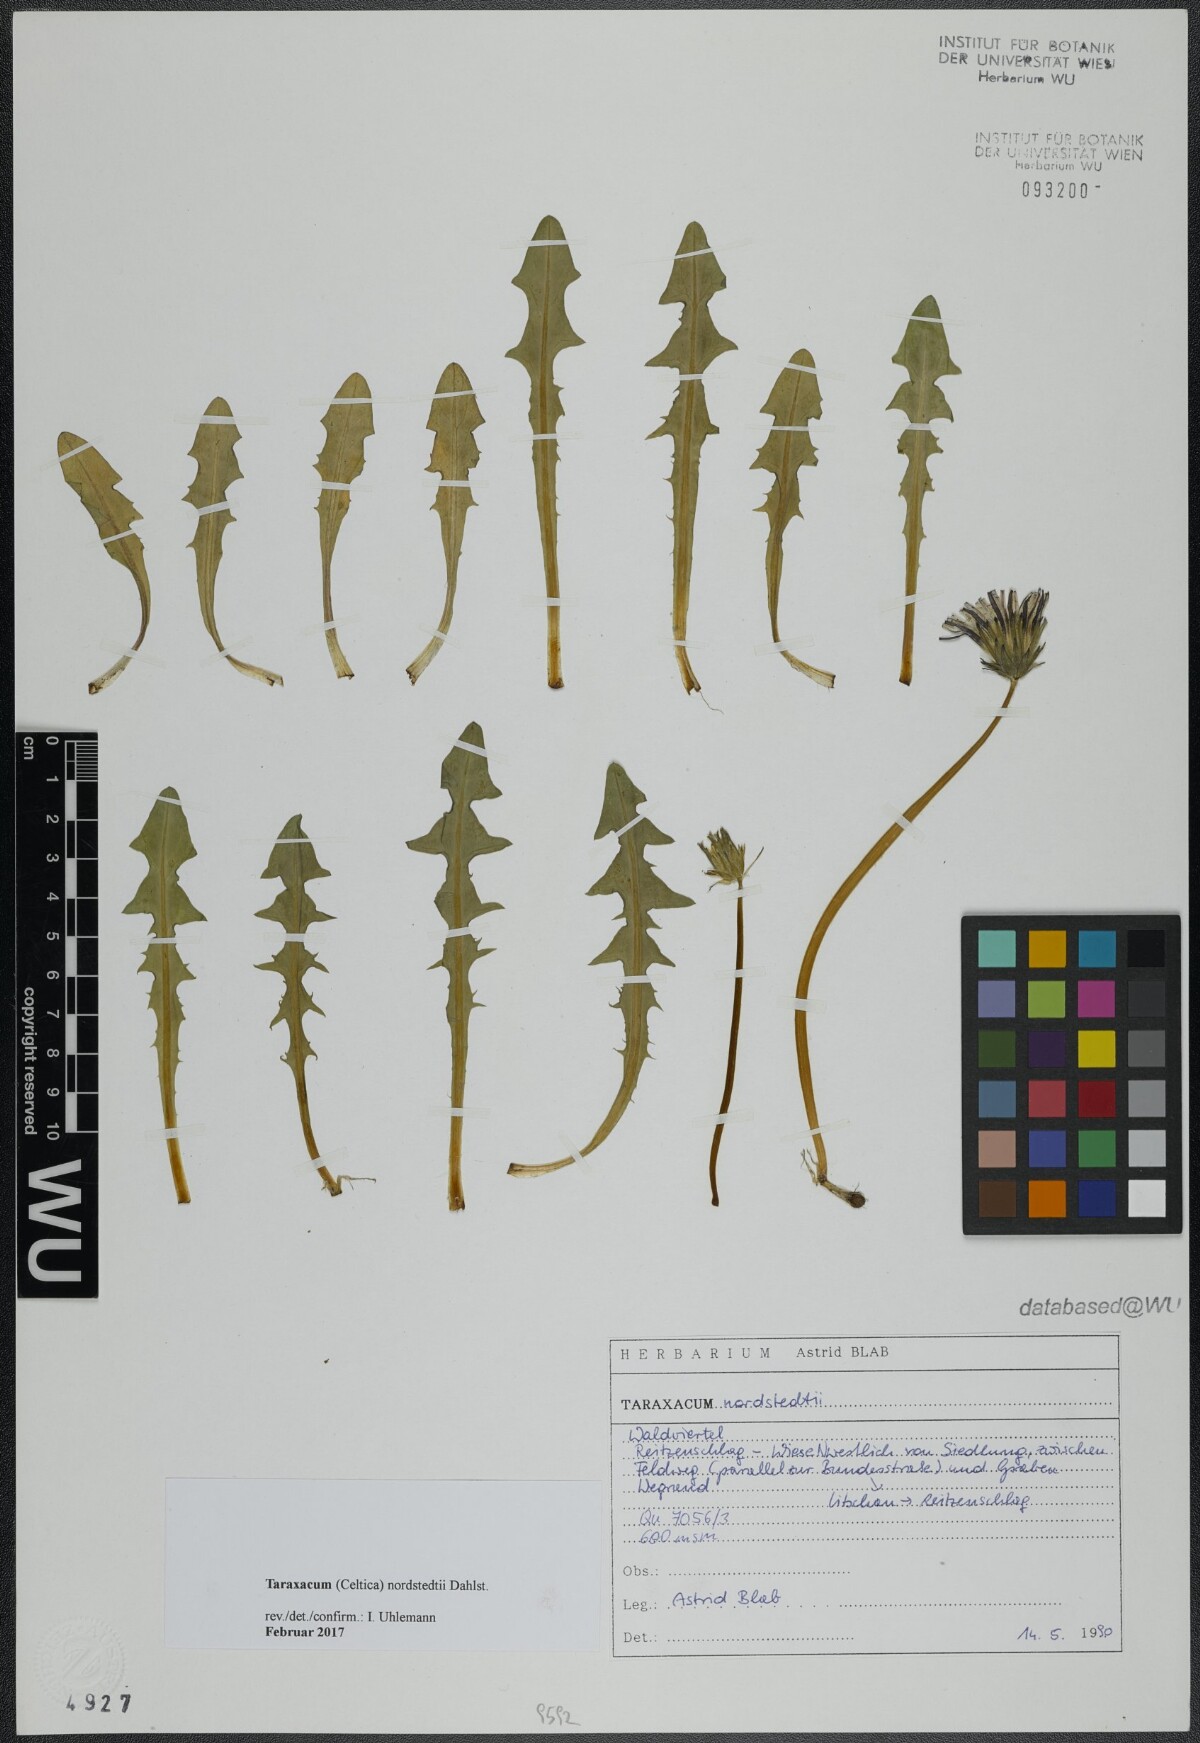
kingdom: Plantae
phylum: Tracheophyta
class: Magnoliopsida
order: Asterales
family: Asteraceae
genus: Taraxacum
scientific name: Taraxacum nordstedtii
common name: Nordstedt's dandelion
